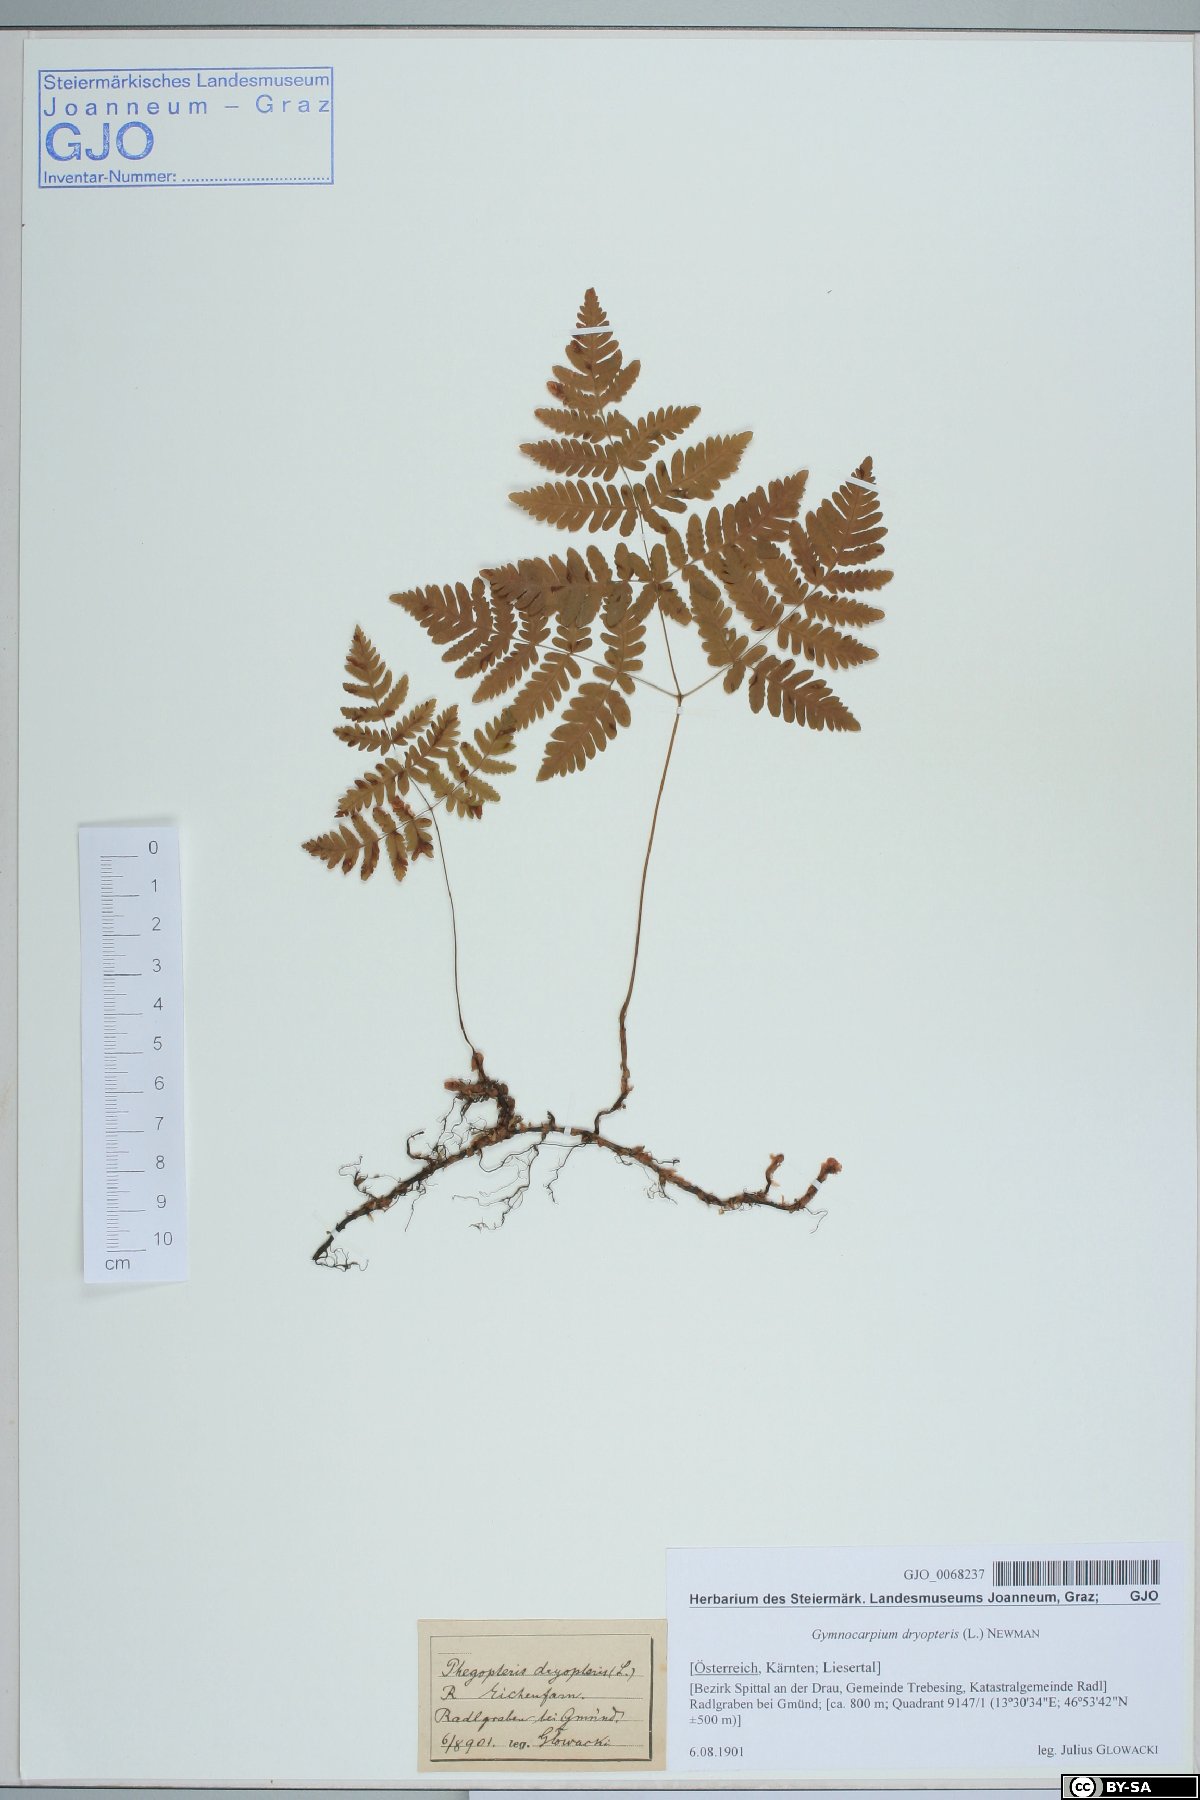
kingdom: Plantae
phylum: Tracheophyta
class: Polypodiopsida
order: Polypodiales
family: Cystopteridaceae
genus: Gymnocarpium
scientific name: Gymnocarpium dryopteris
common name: Oak fern
